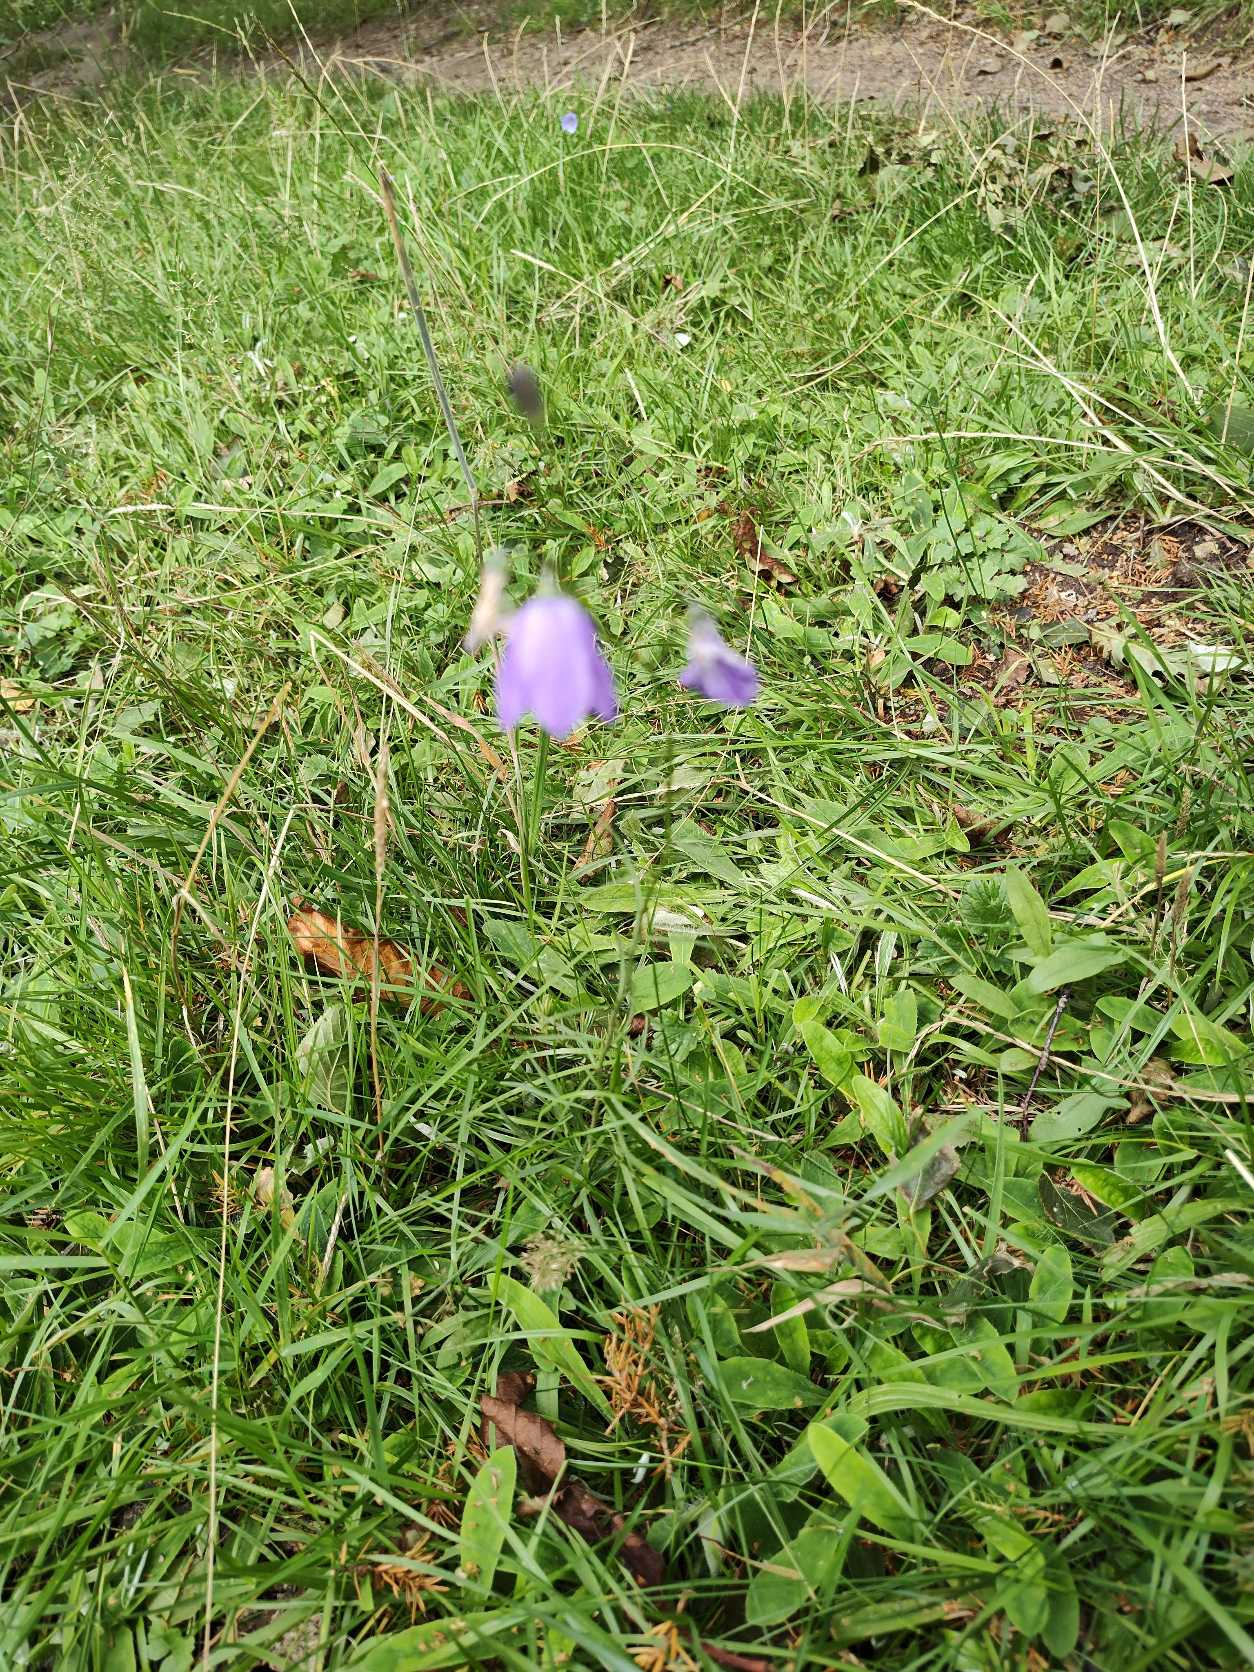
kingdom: Plantae
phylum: Tracheophyta
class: Magnoliopsida
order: Asterales
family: Campanulaceae
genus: Campanula
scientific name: Campanula rotundifolia
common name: Liden klokke
